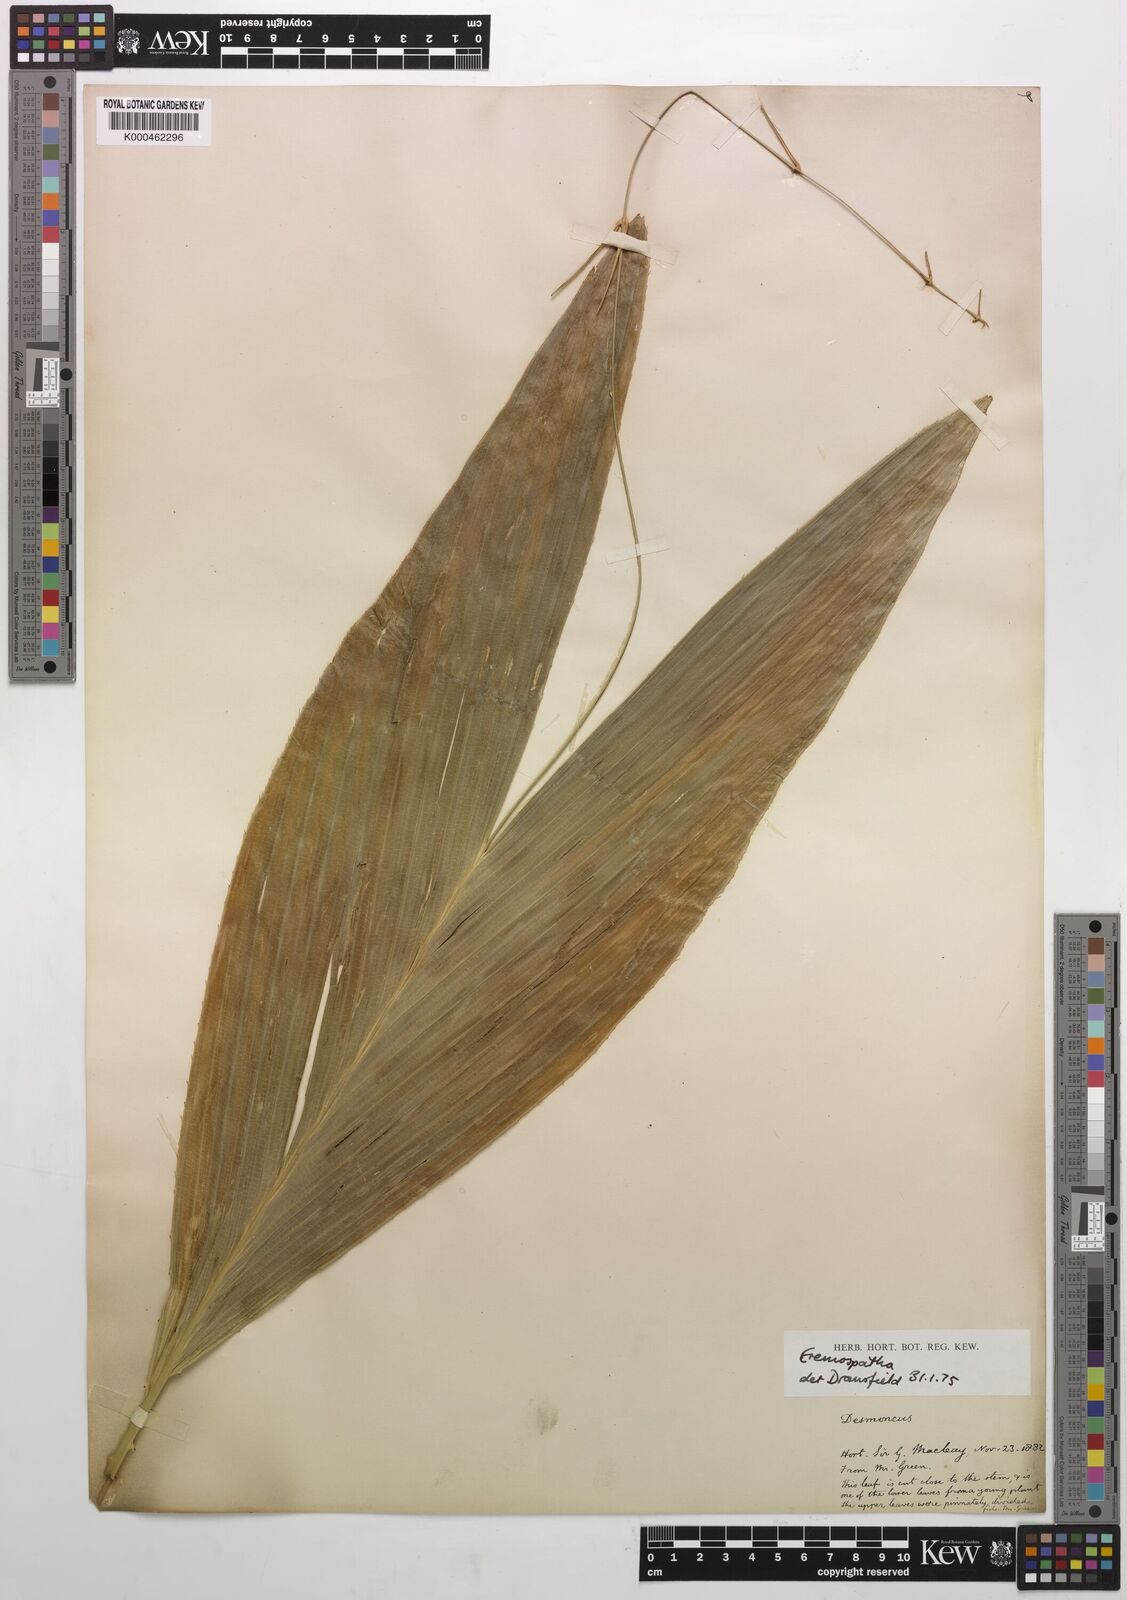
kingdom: Plantae
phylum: Tracheophyta
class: Liliopsida
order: Arecales
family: Arecaceae
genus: Eremospatha
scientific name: Eremospatha
